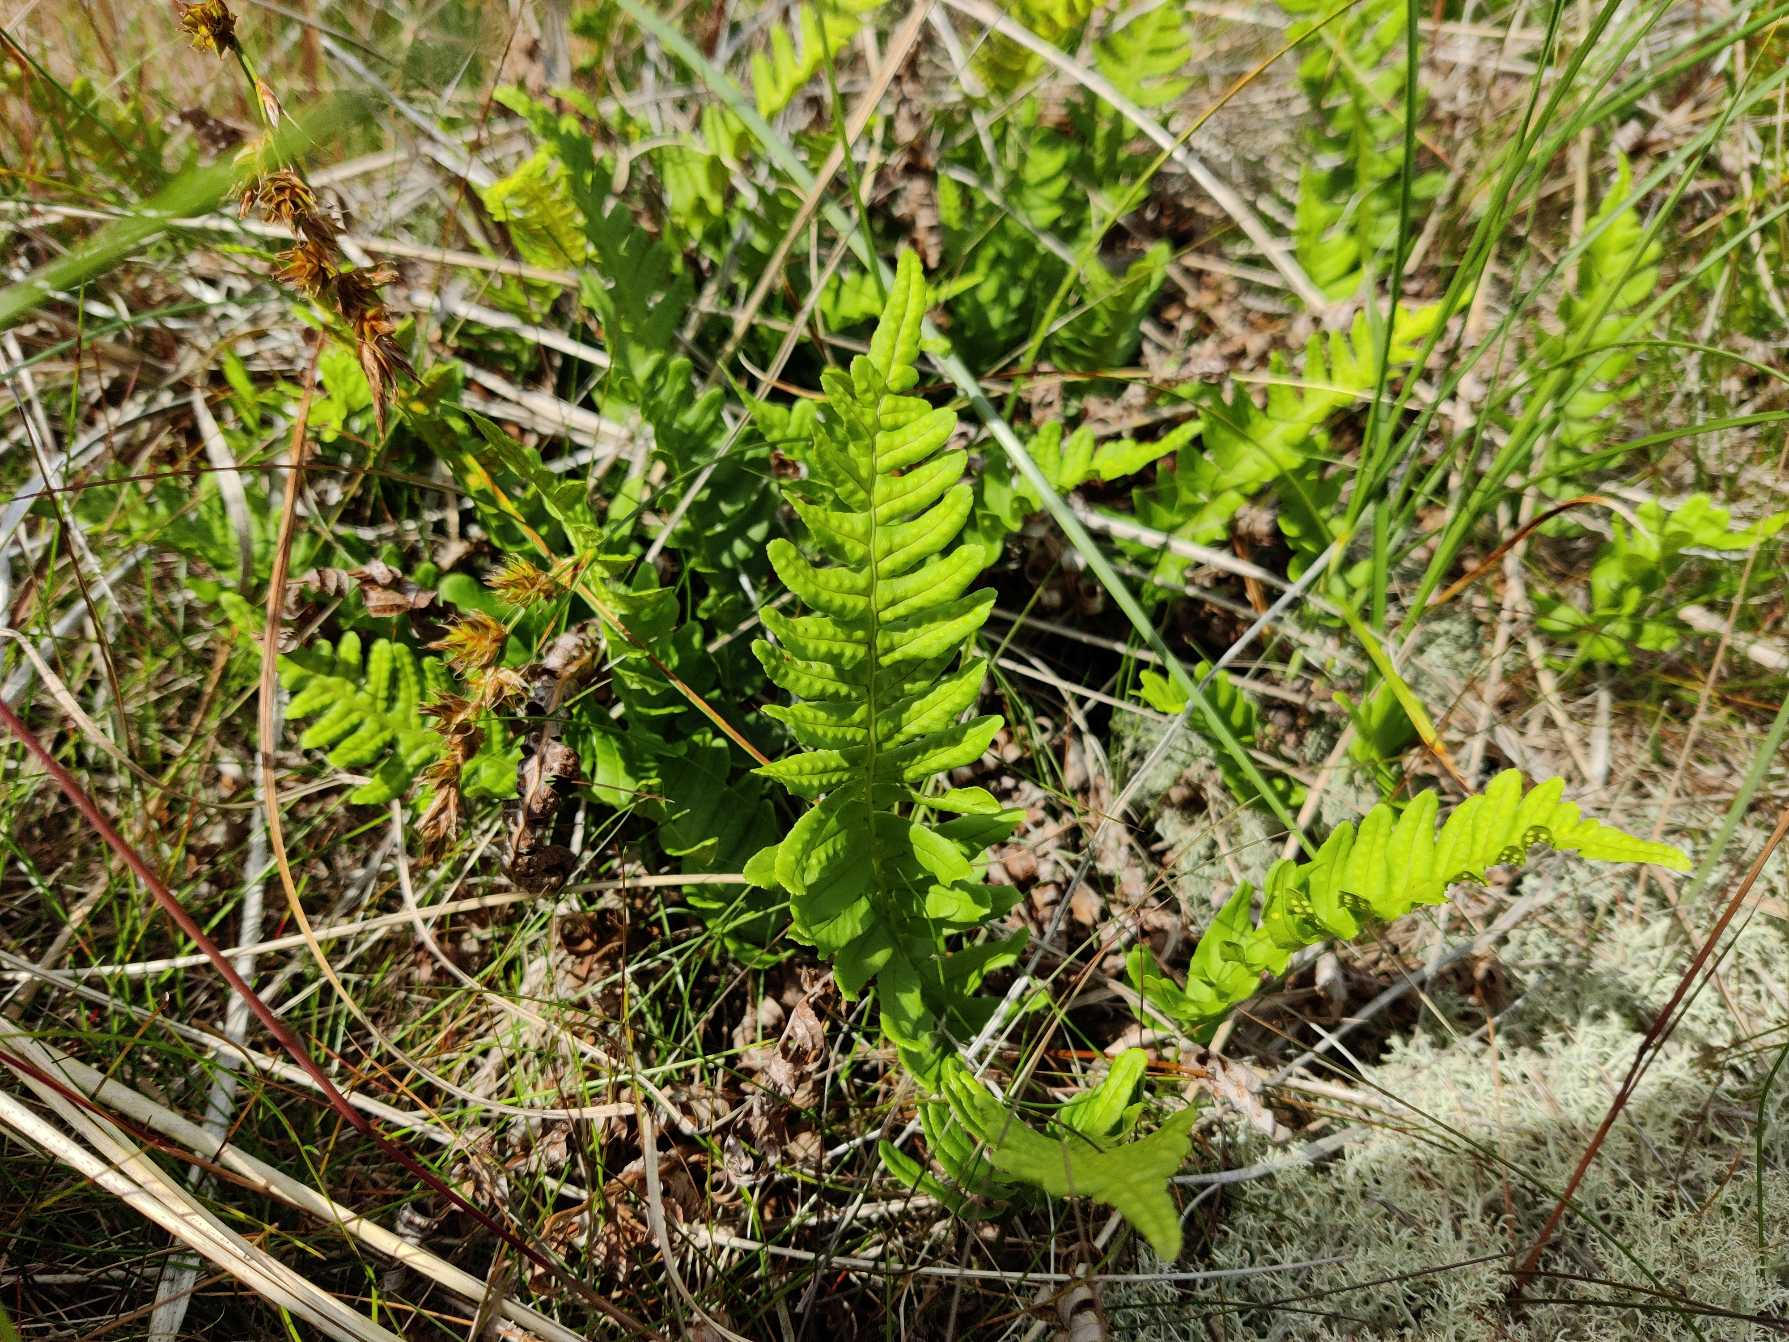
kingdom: Plantae
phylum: Tracheophyta
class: Polypodiopsida
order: Polypodiales
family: Polypodiaceae
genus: Polypodium
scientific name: Polypodium vulgare
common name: Almindelig engelsød
